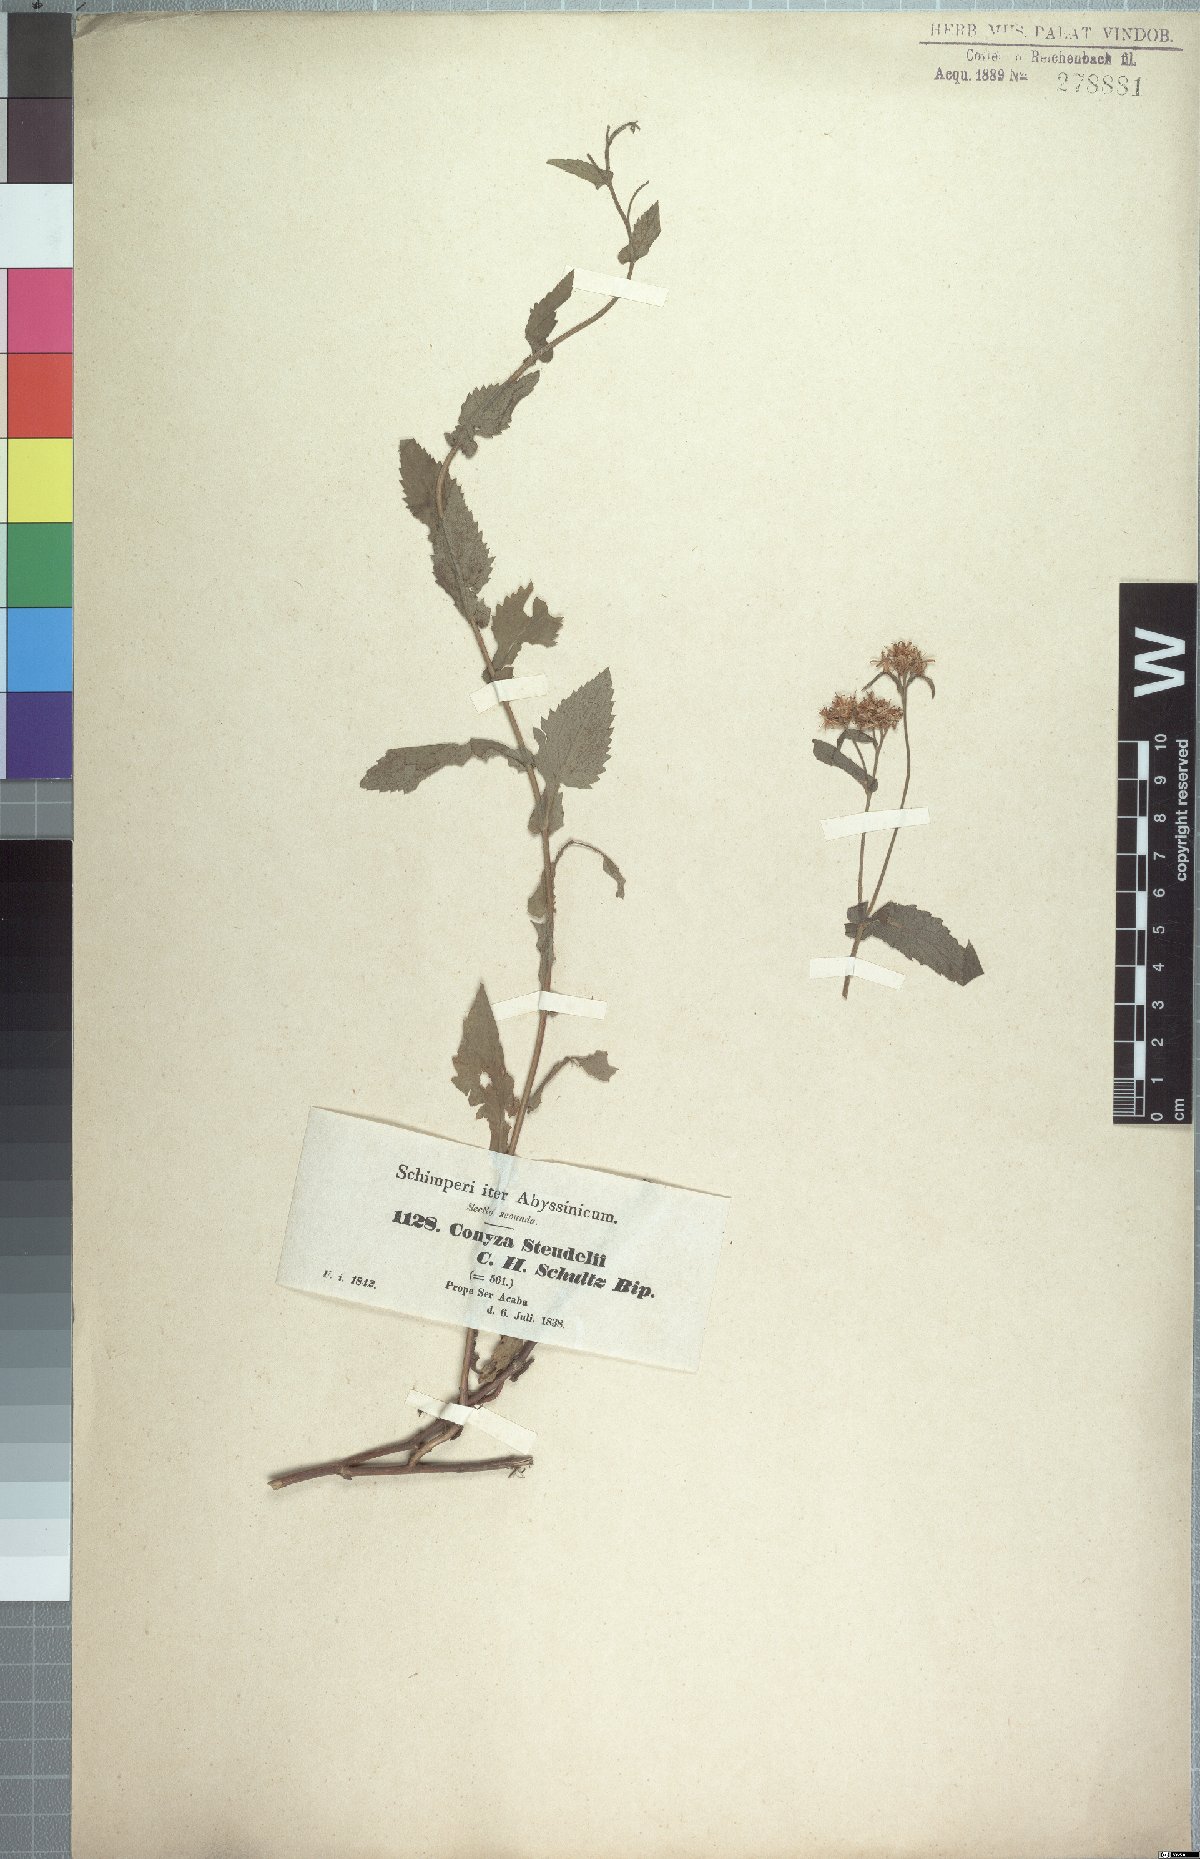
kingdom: Plantae
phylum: Tracheophyta
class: Magnoliopsida
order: Asterales
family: Asteraceae
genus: Conyza
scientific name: Conyza steudelii
